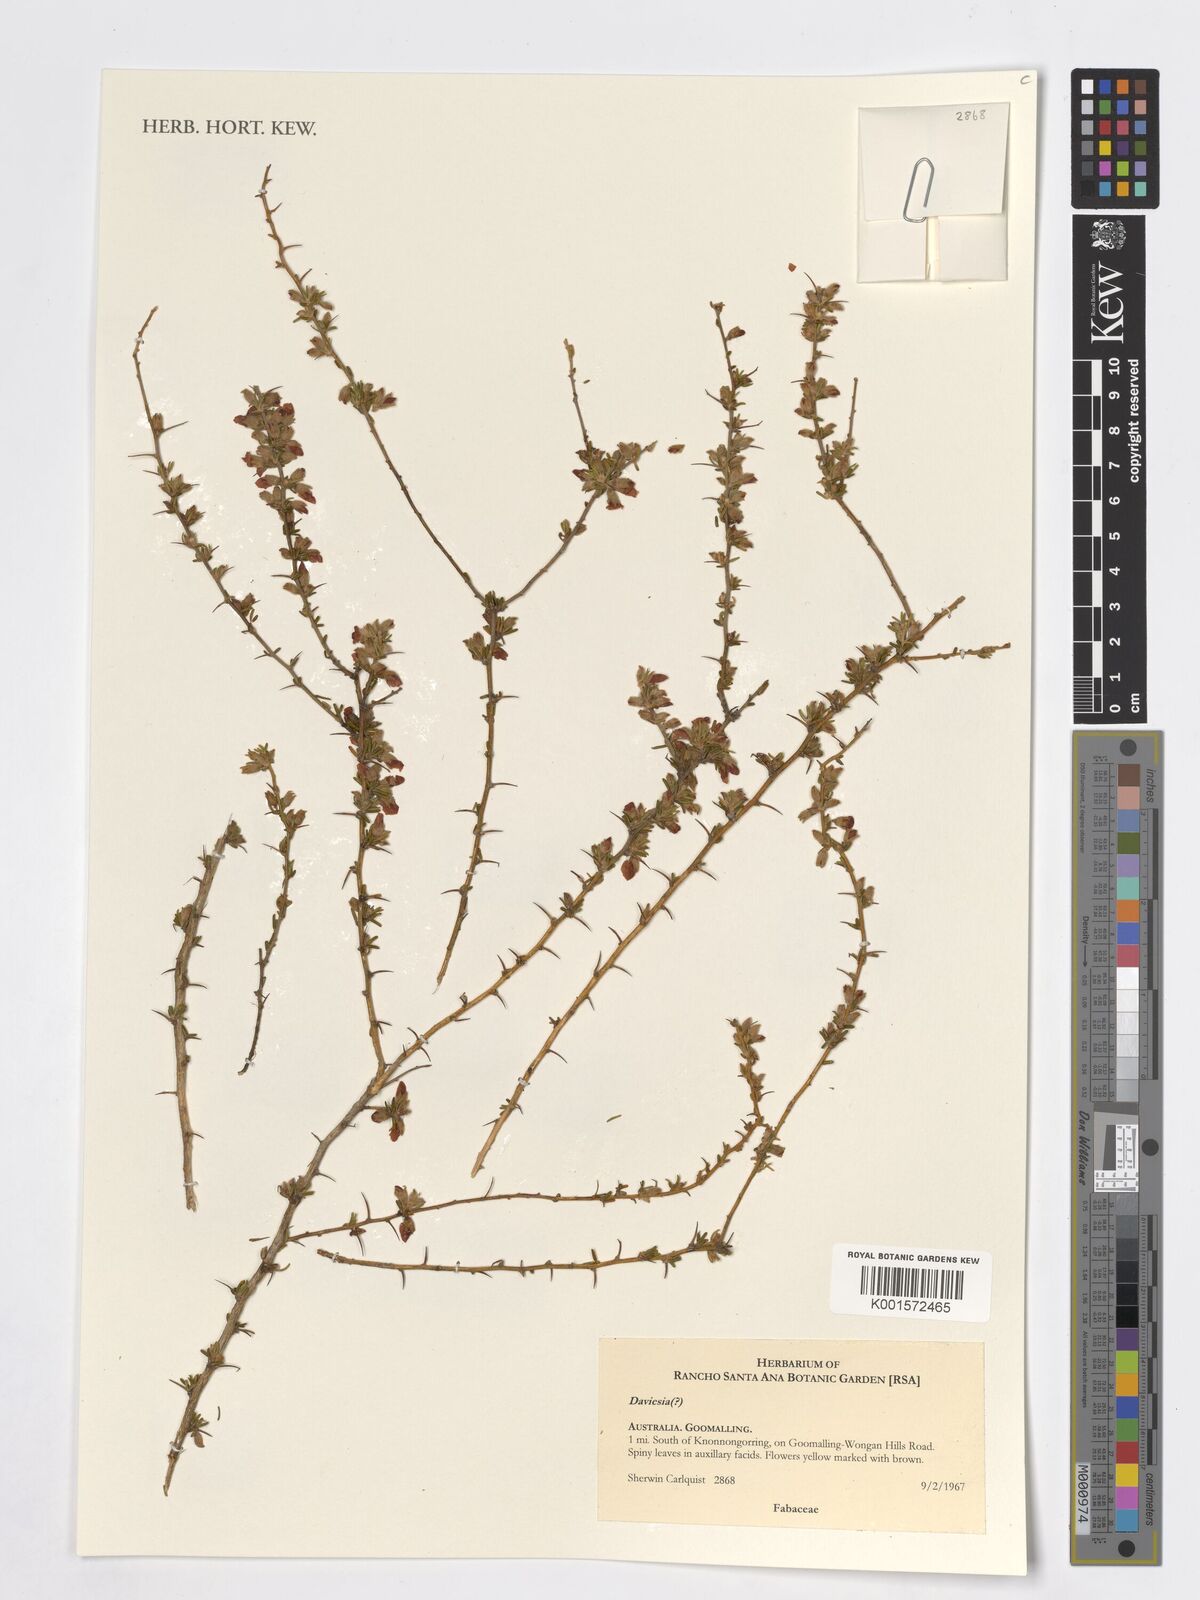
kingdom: Plantae
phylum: Tracheophyta
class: Magnoliopsida
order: Fabales
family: Fabaceae
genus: Daviesia
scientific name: Daviesia
